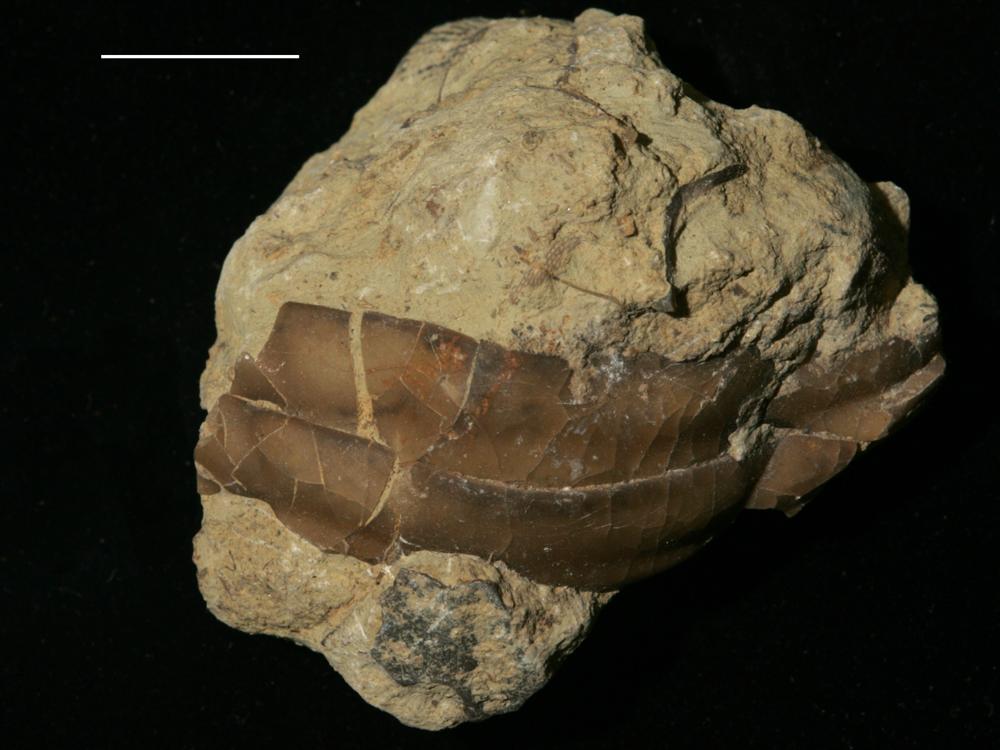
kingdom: Animalia
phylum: Arthropoda
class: Trilobita
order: Asaphida
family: Asaphidae
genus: Isotelus
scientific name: Isotelus
